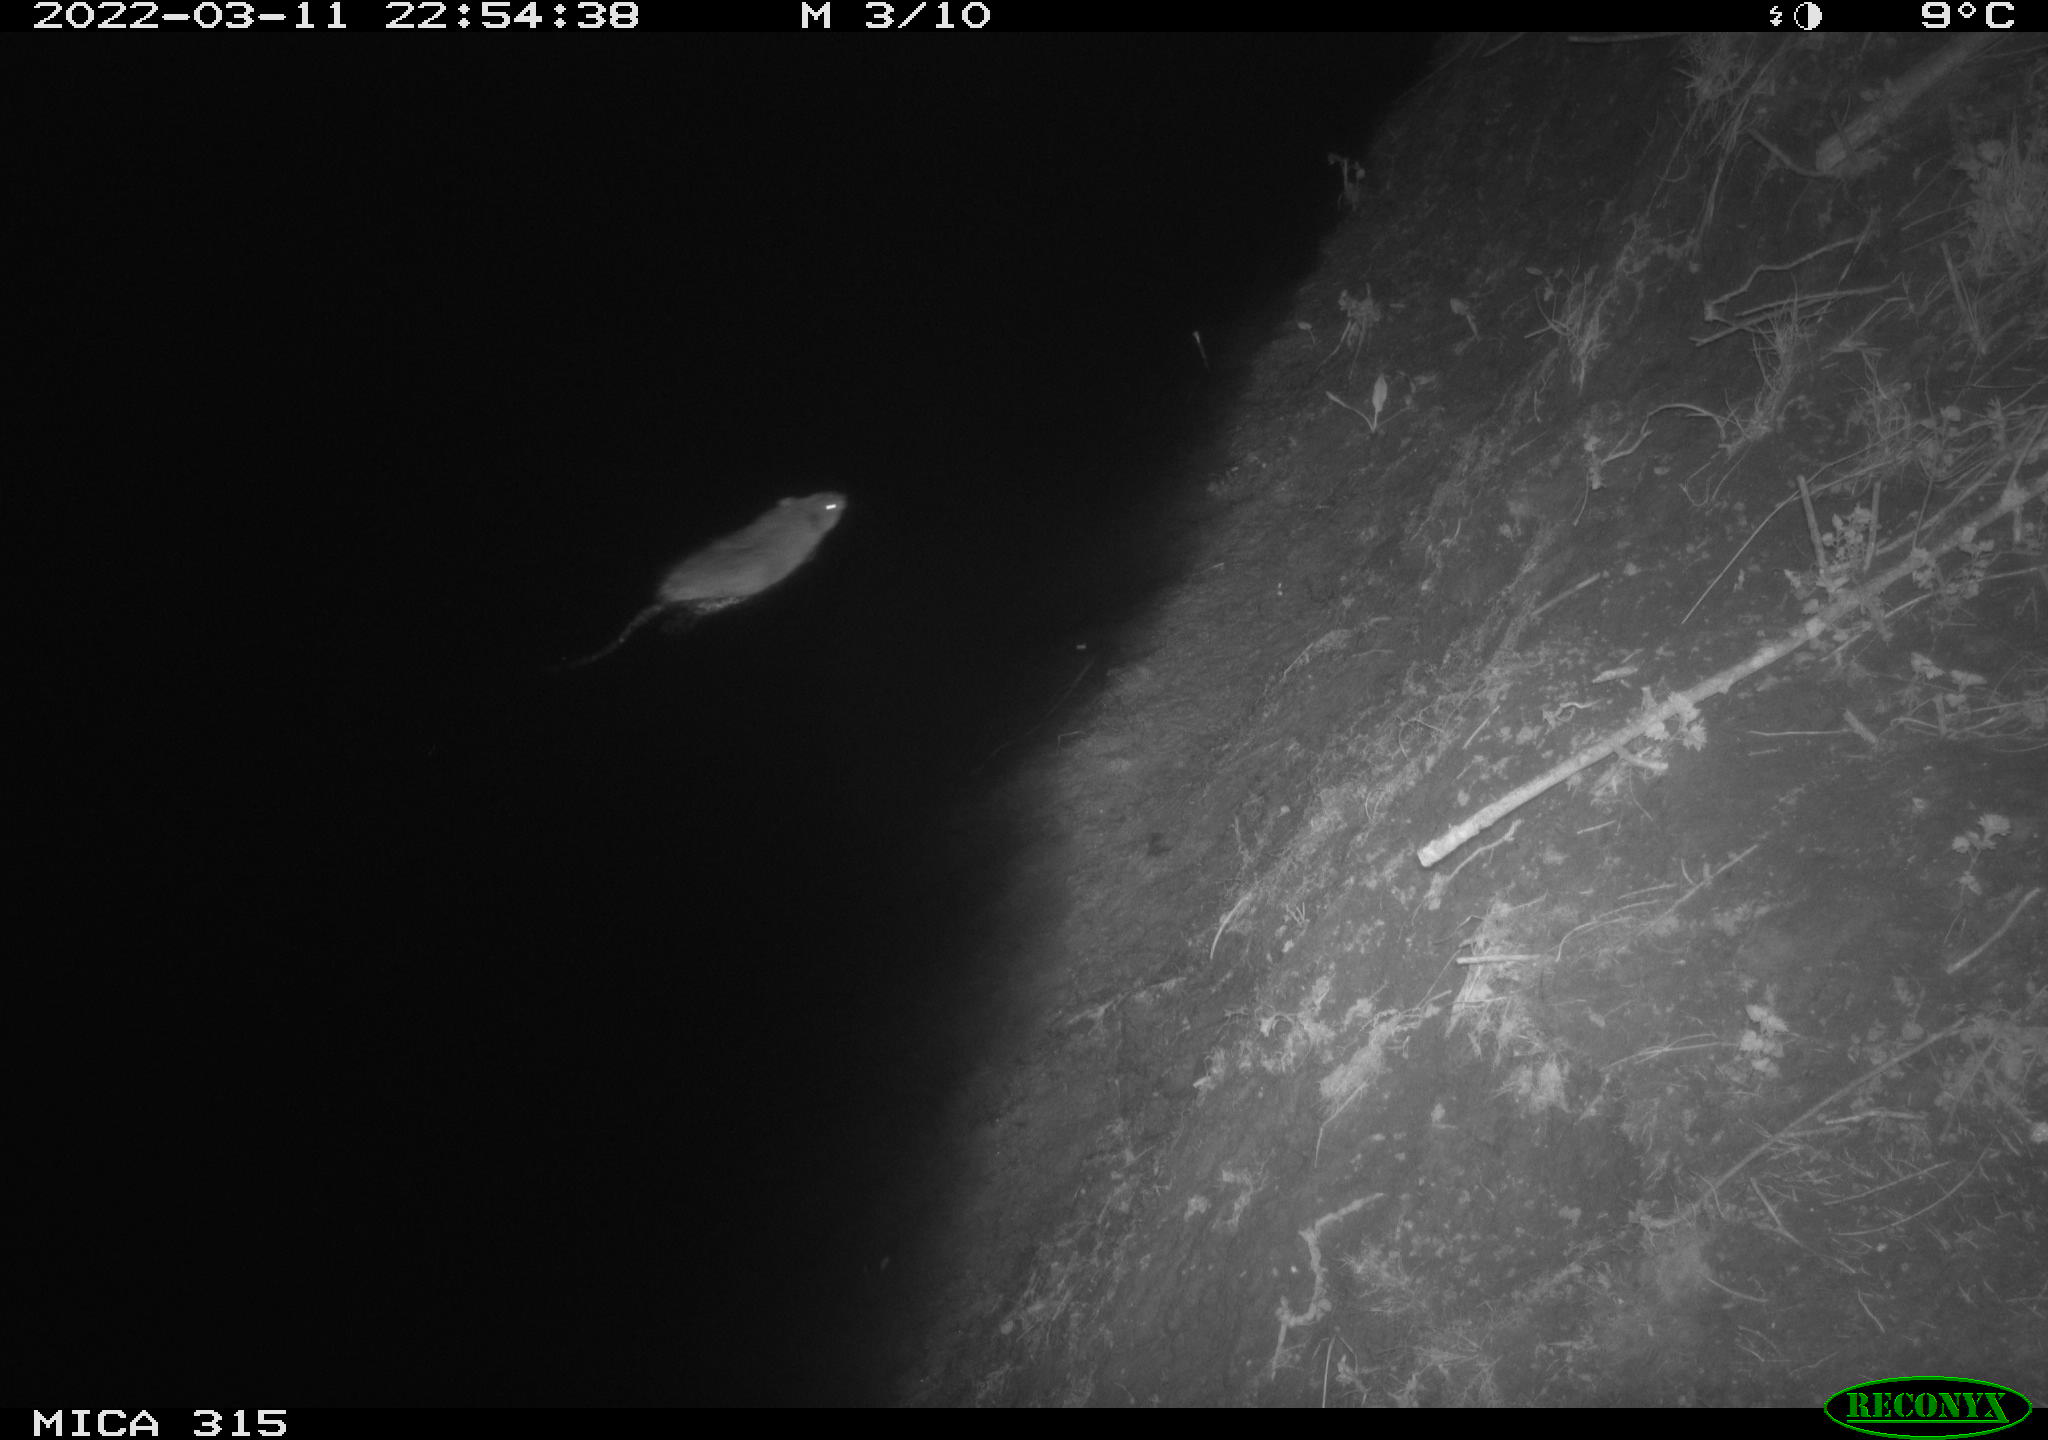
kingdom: Animalia
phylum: Chordata
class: Mammalia
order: Rodentia
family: Cricetidae
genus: Ondatra
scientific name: Ondatra zibethicus
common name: Muskrat
